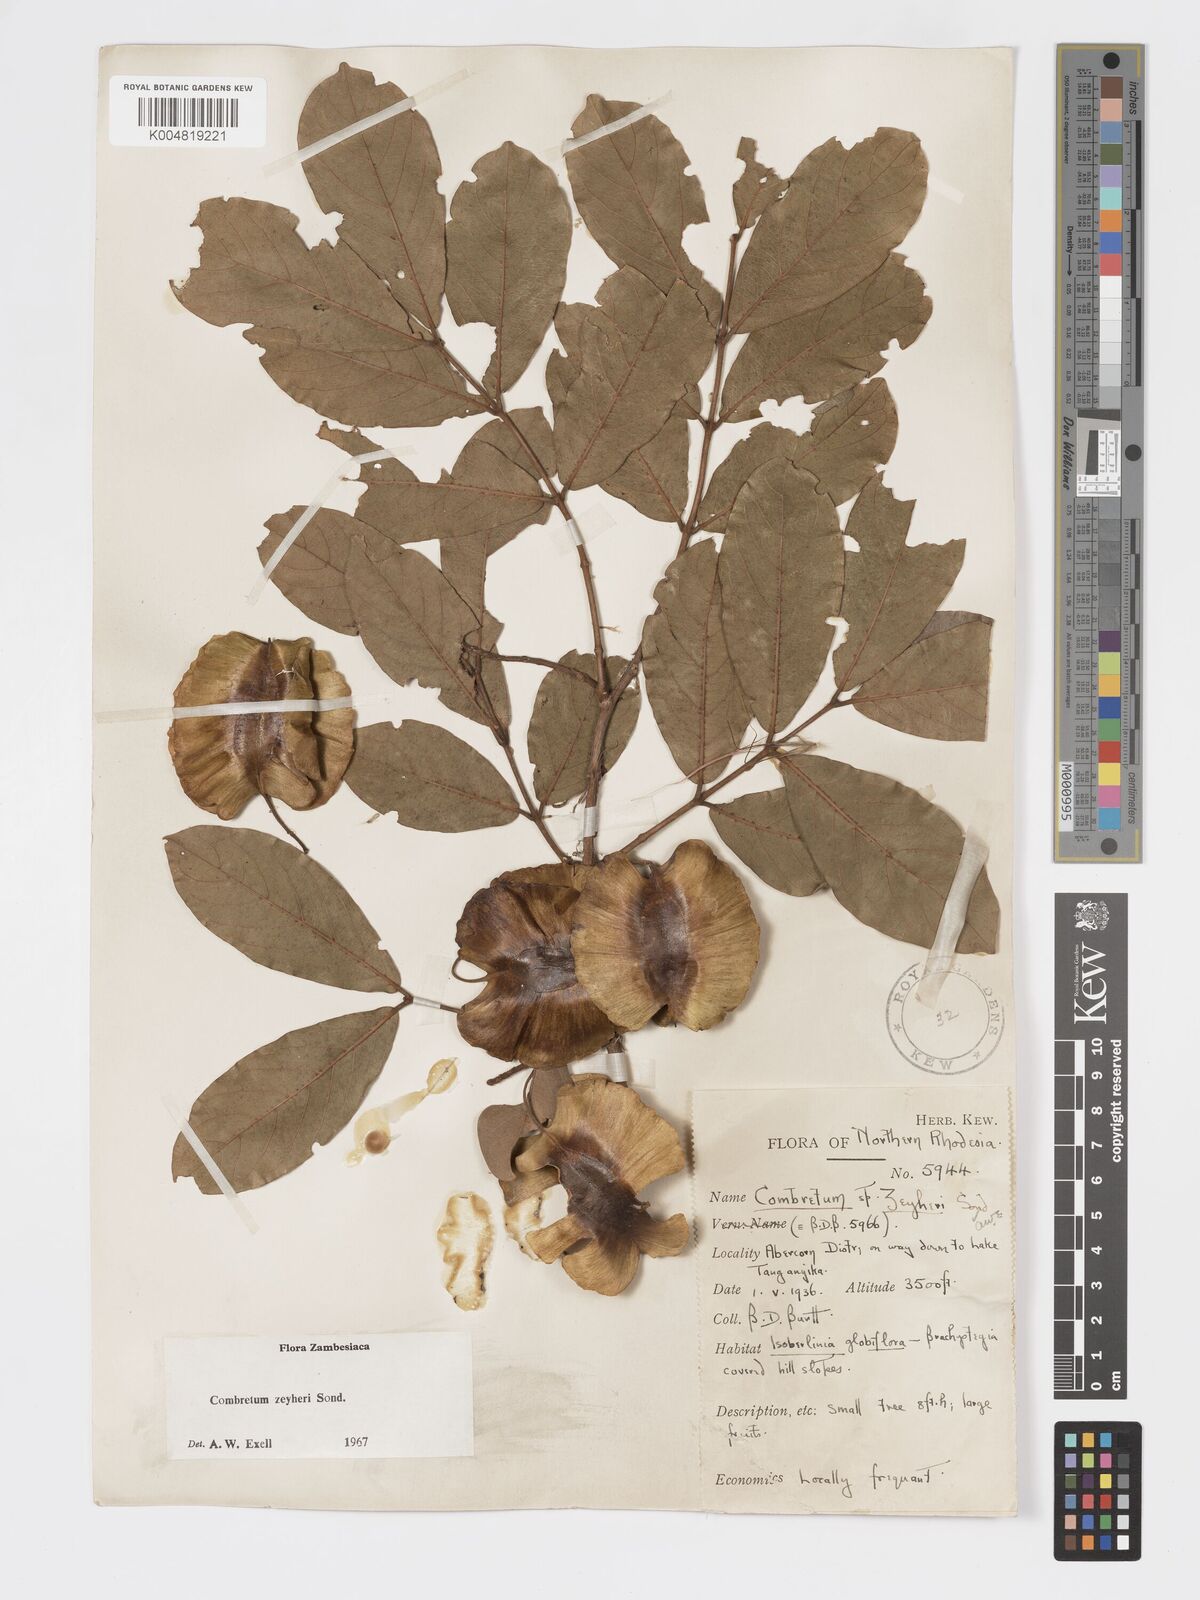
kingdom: Plantae
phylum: Tracheophyta
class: Magnoliopsida
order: Myrtales
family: Combretaceae
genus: Combretum
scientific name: Combretum zeyheri
